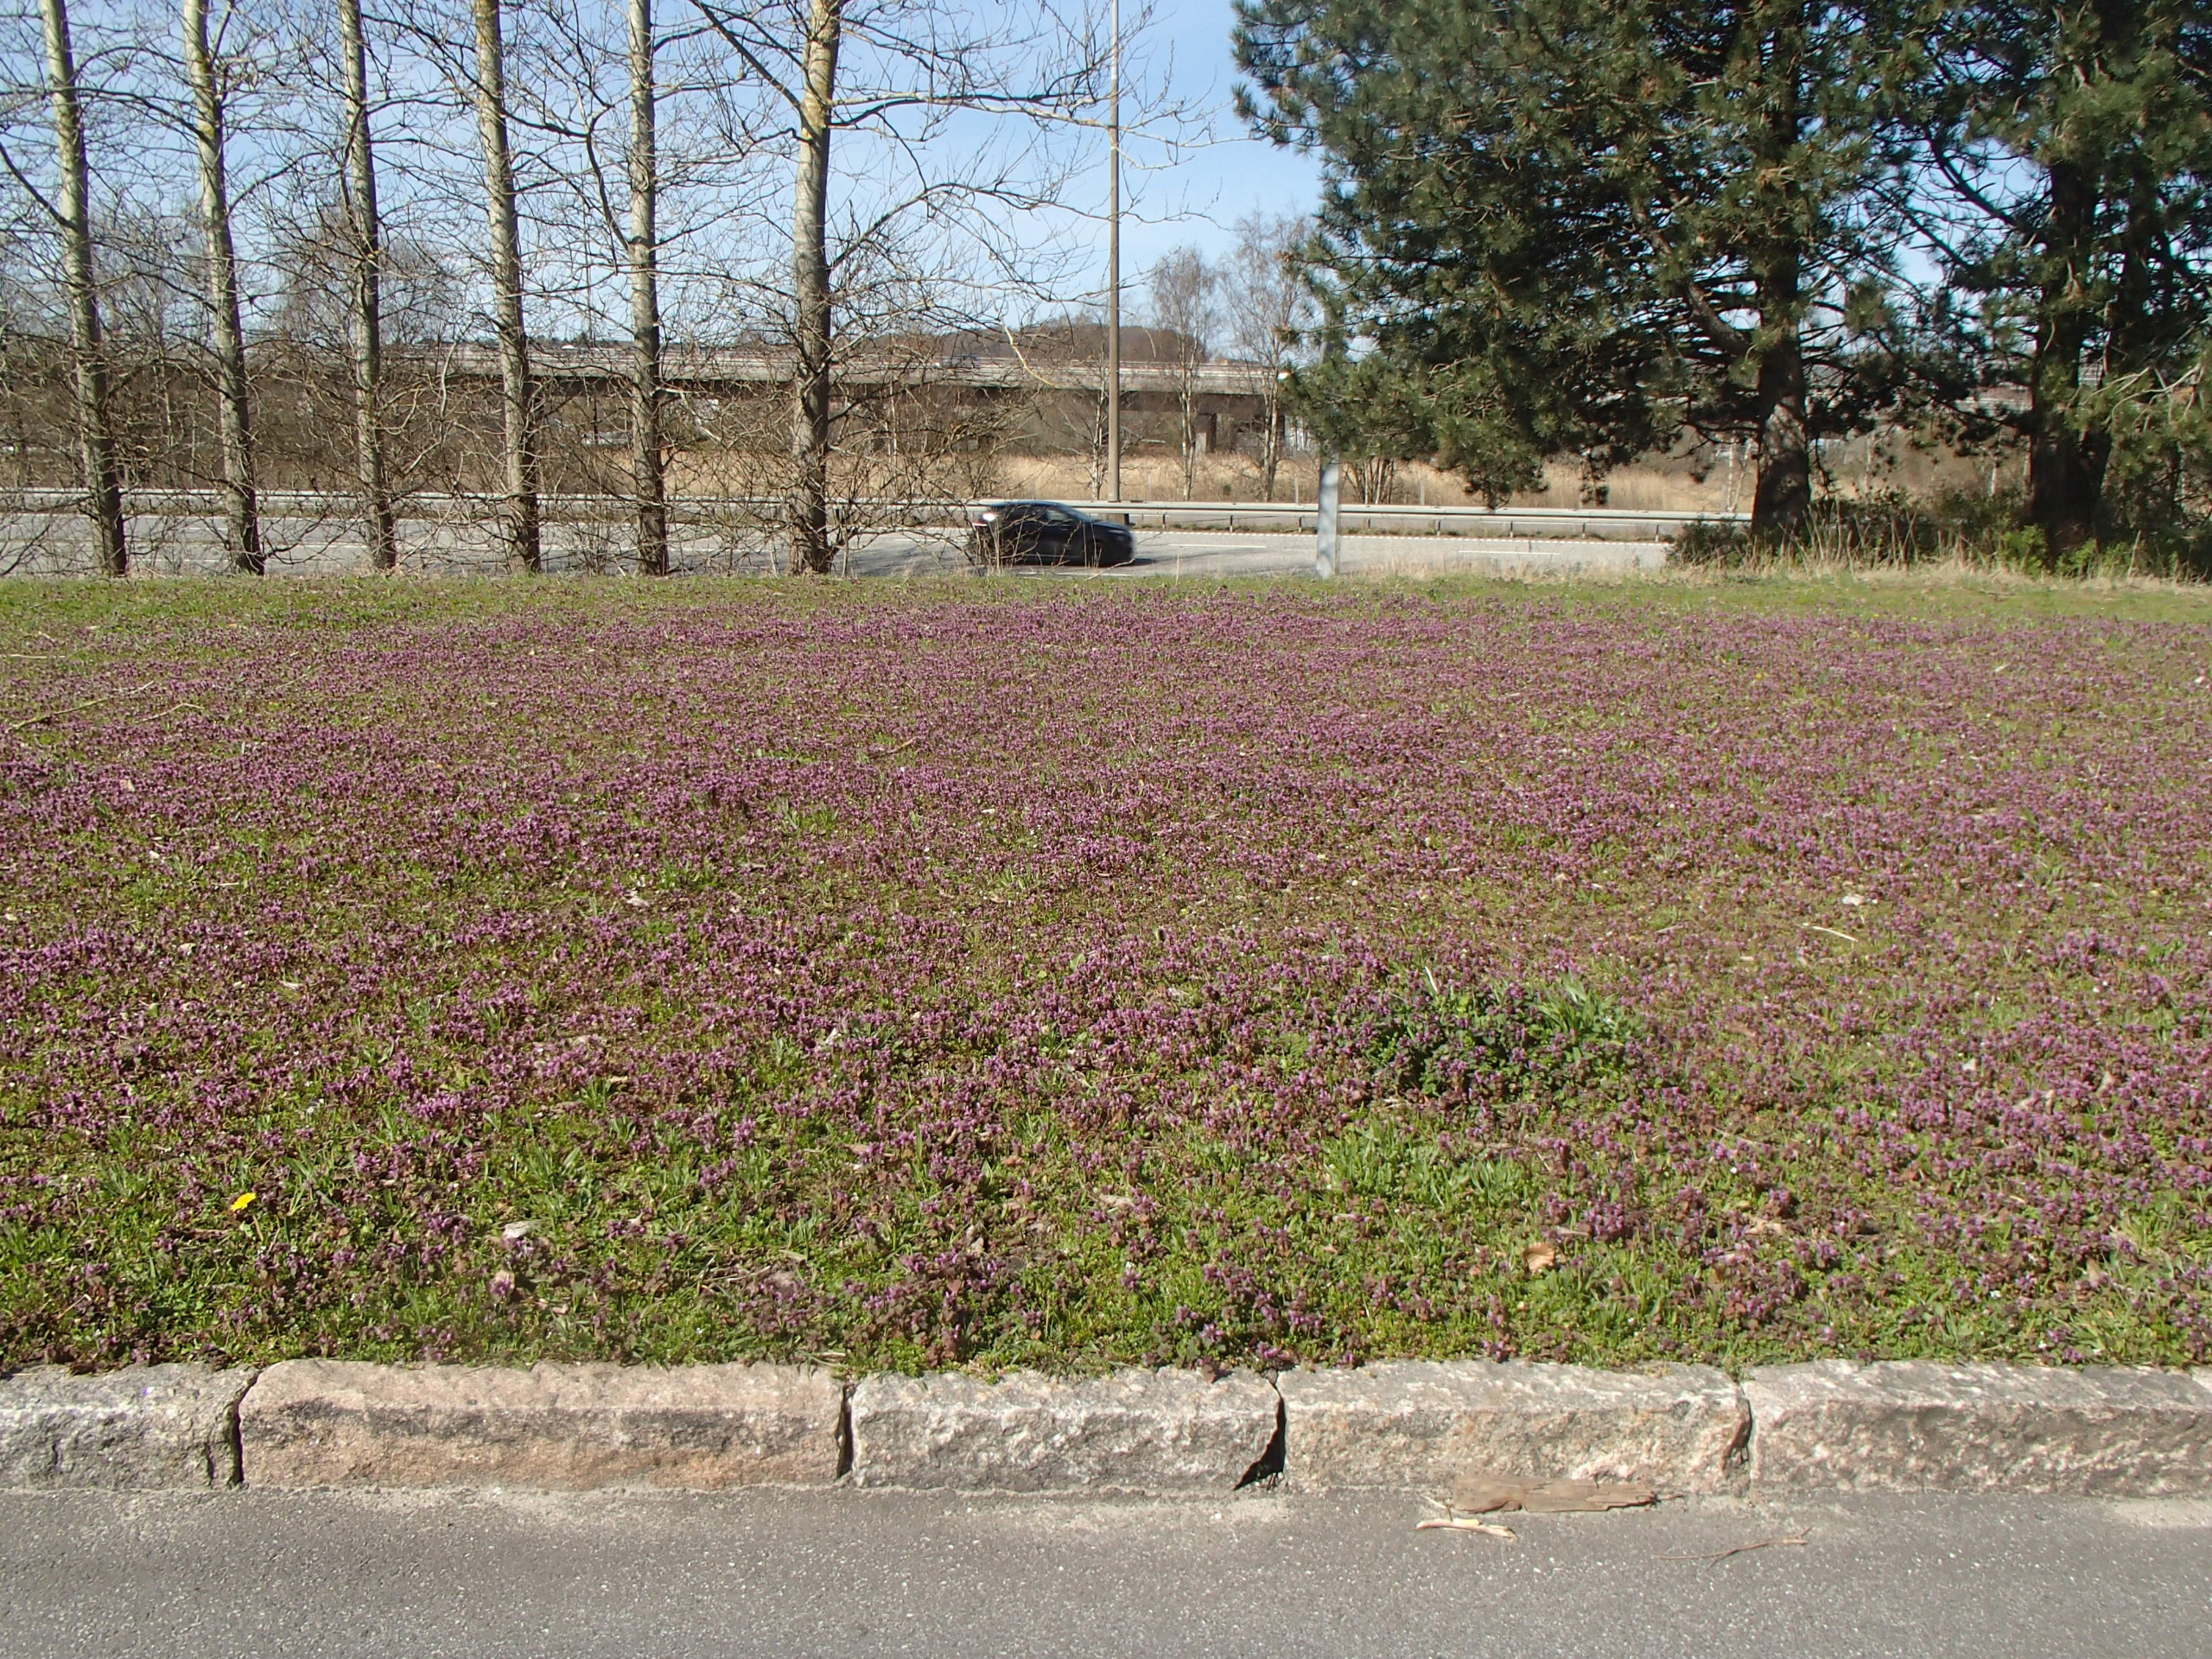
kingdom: Plantae
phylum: Tracheophyta
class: Magnoliopsida
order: Lamiales
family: Lamiaceae
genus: Lamium
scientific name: Lamium purpureum
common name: Rød tvetand
